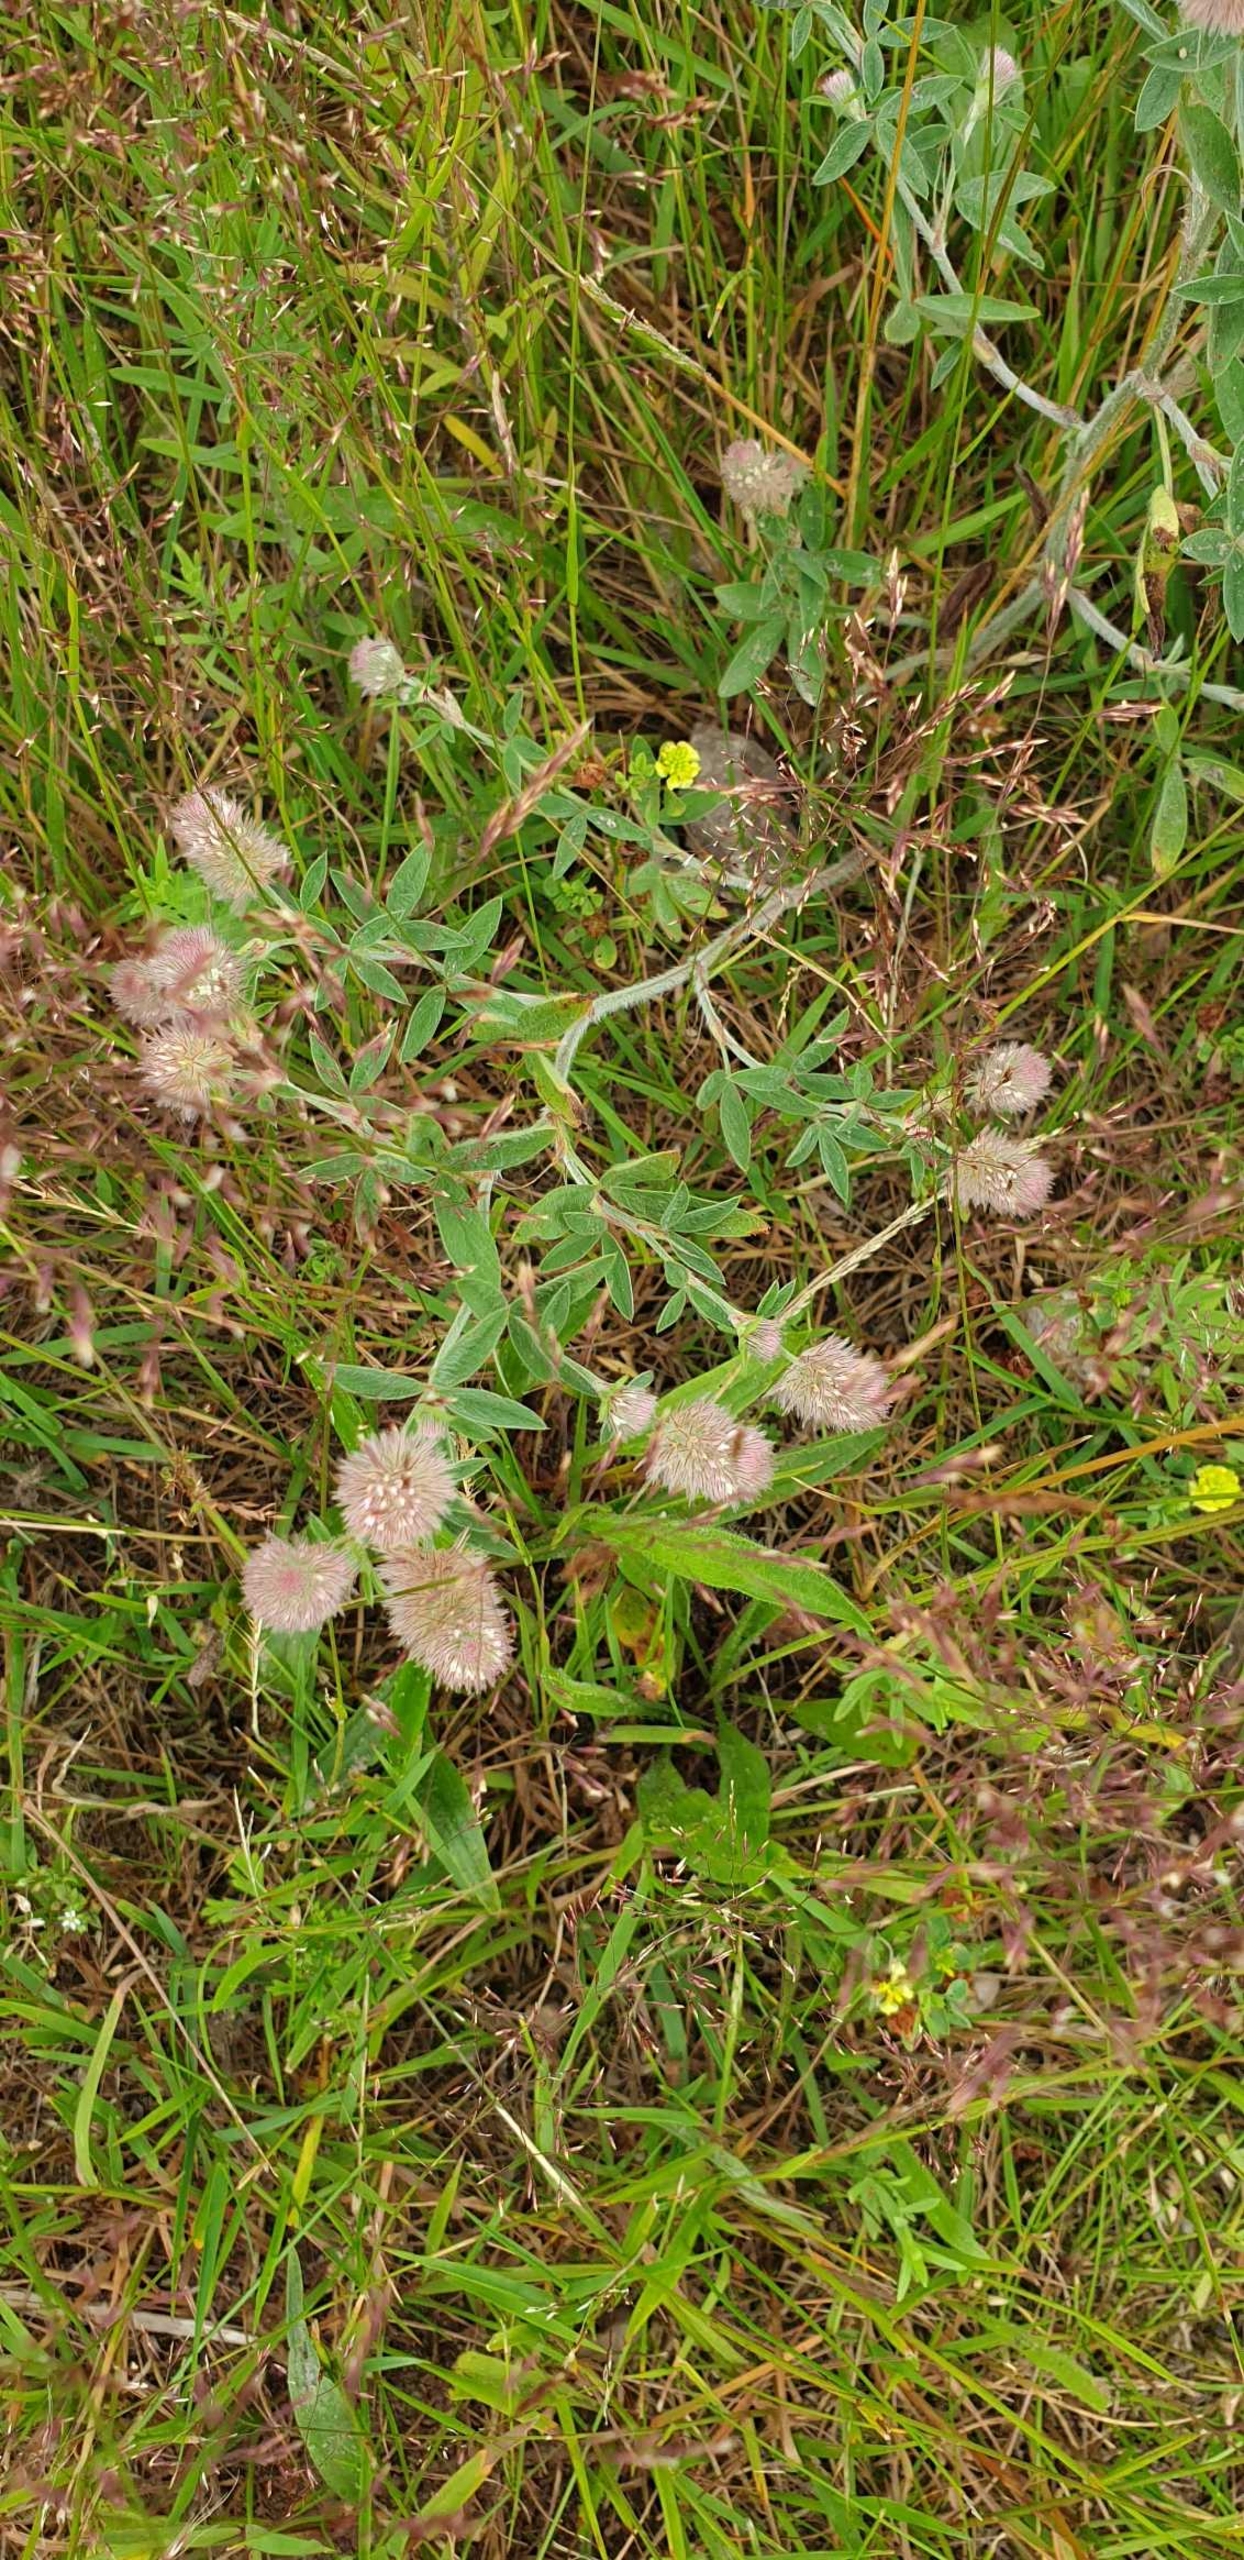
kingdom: Plantae
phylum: Tracheophyta
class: Magnoliopsida
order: Fabales
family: Fabaceae
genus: Trifolium
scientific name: Trifolium arvense
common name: Hare-kløver
